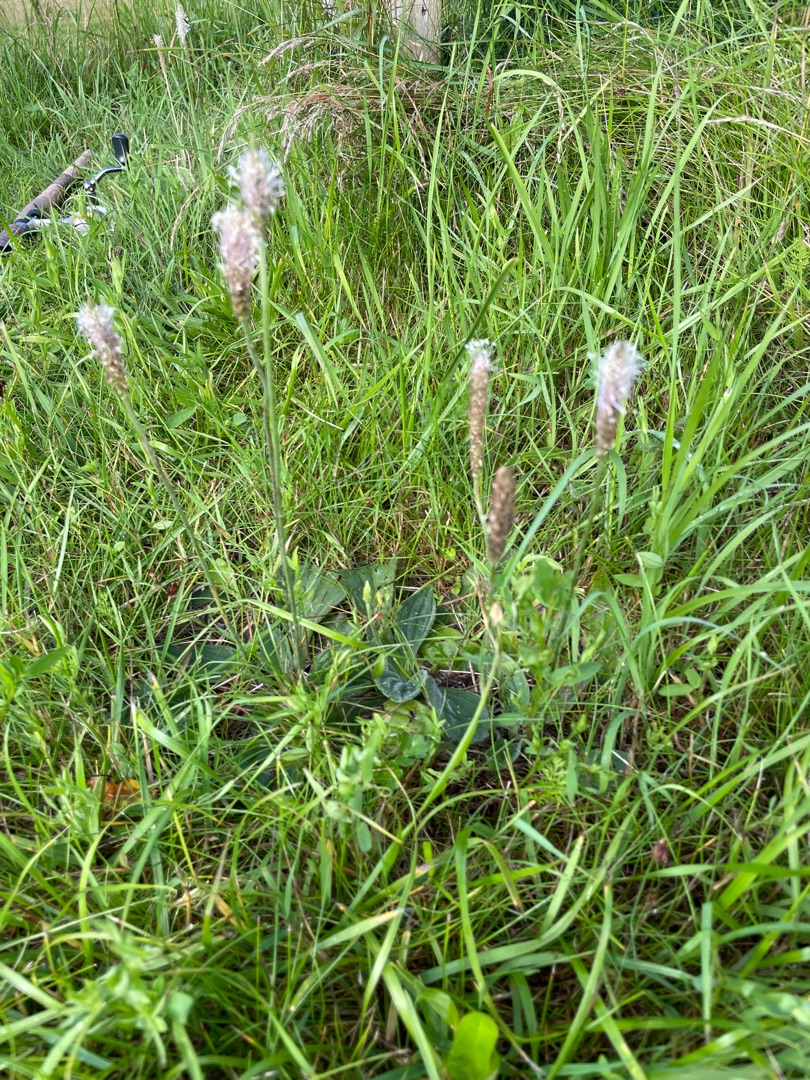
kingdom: Plantae
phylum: Tracheophyta
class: Magnoliopsida
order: Lamiales
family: Plantaginaceae
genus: Plantago
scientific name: Plantago media
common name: Dunet vejbred
